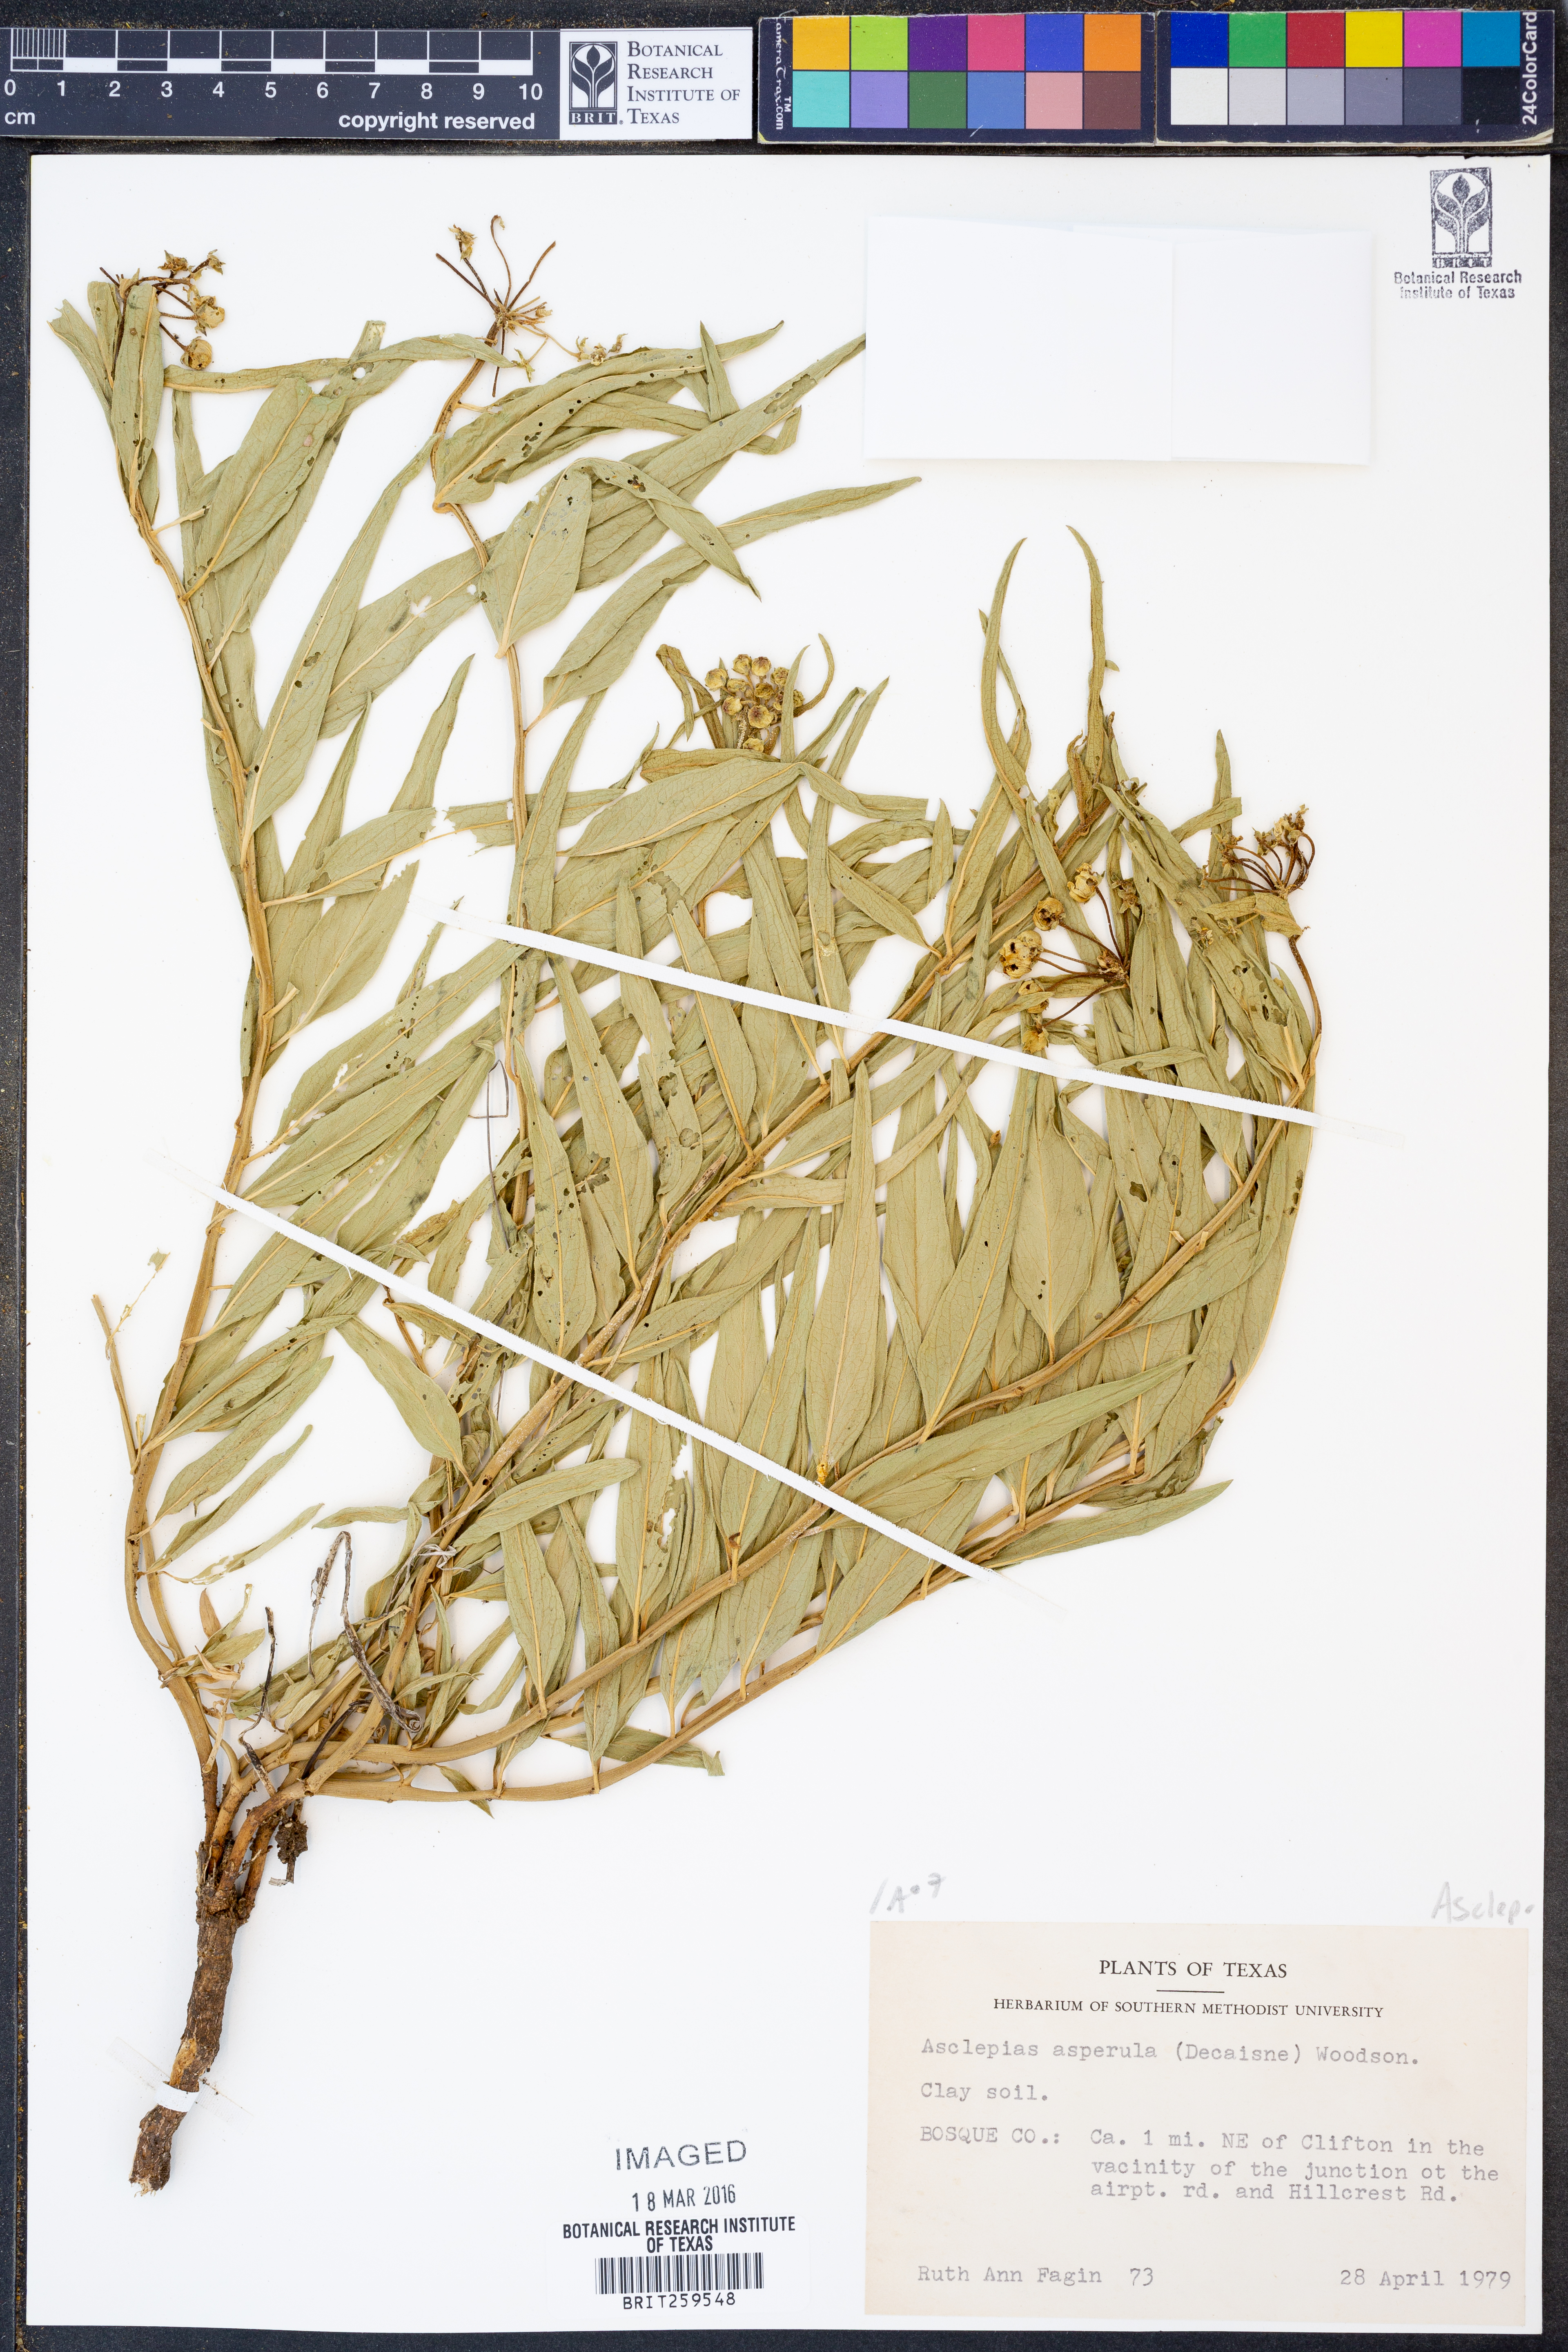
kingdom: Plantae
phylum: Tracheophyta
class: Magnoliopsida
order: Gentianales
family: Apocynaceae
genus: Asclepias
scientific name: Asclepias asperula
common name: Antelope horns
